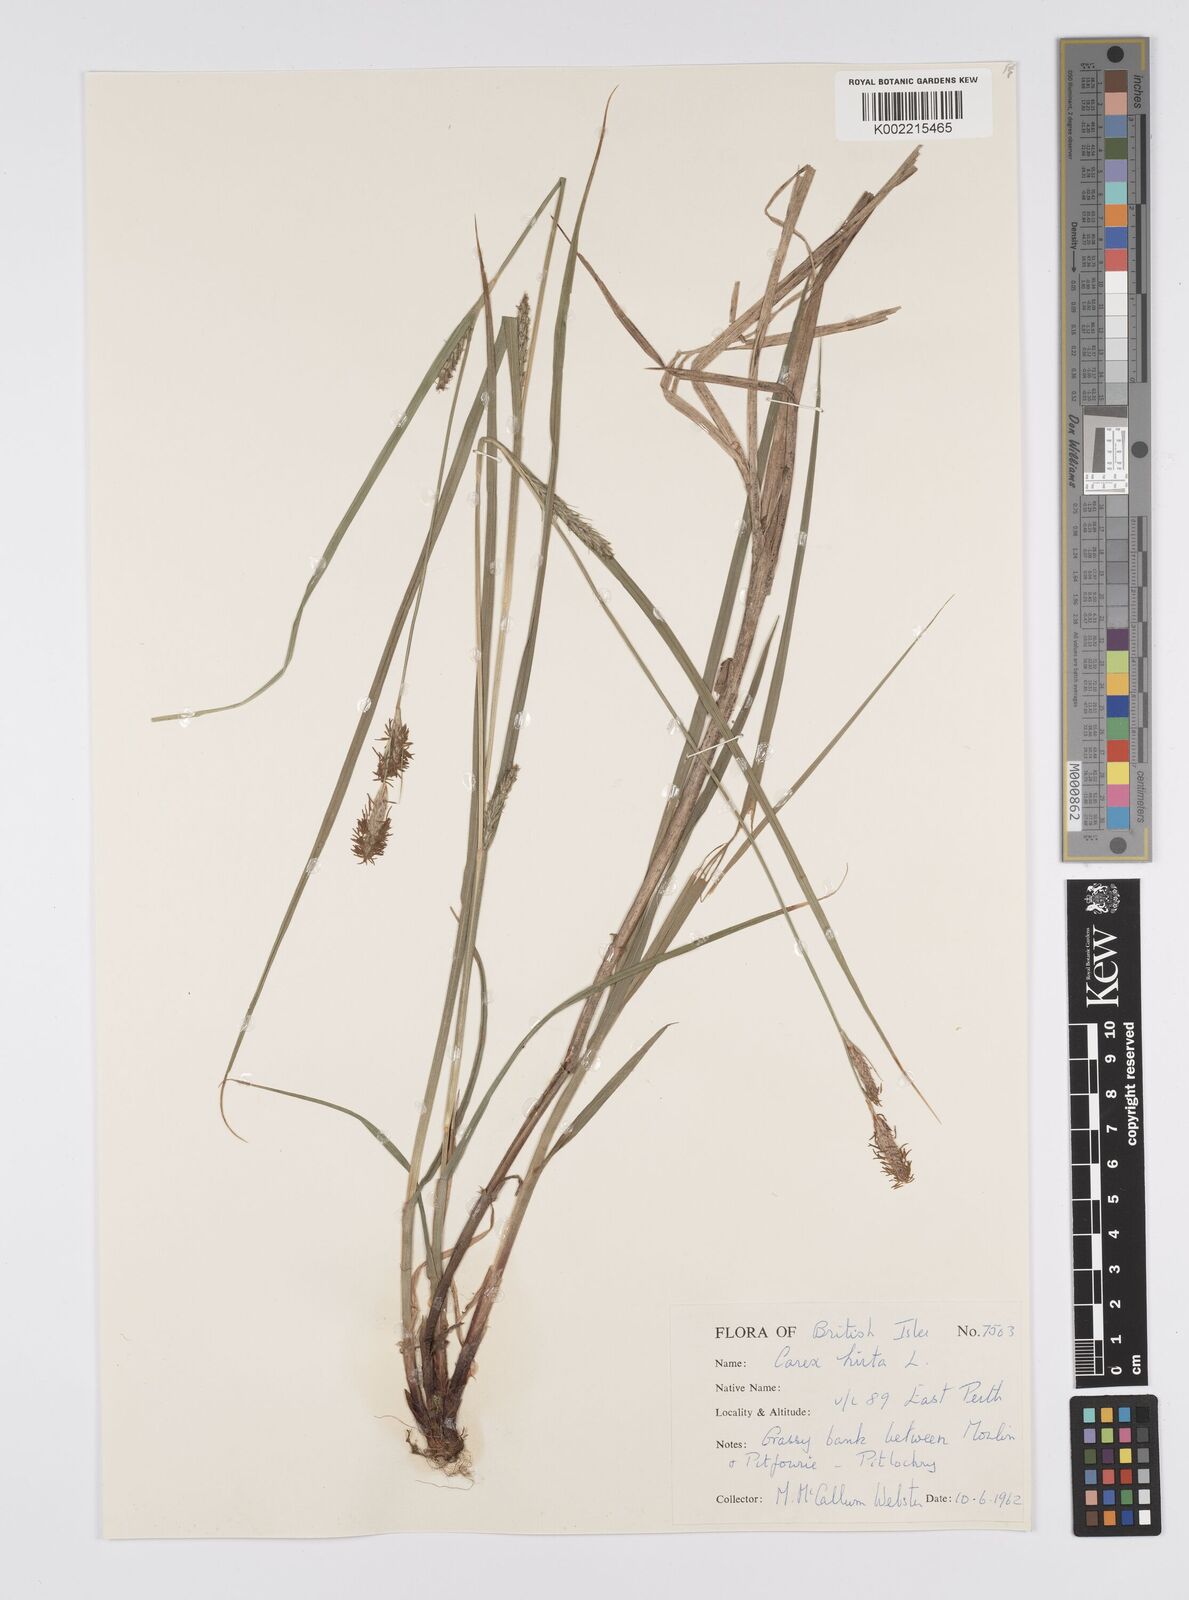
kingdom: Plantae
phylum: Tracheophyta
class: Liliopsida
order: Poales
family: Cyperaceae
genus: Carex
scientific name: Carex hirta
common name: Hairy sedge
